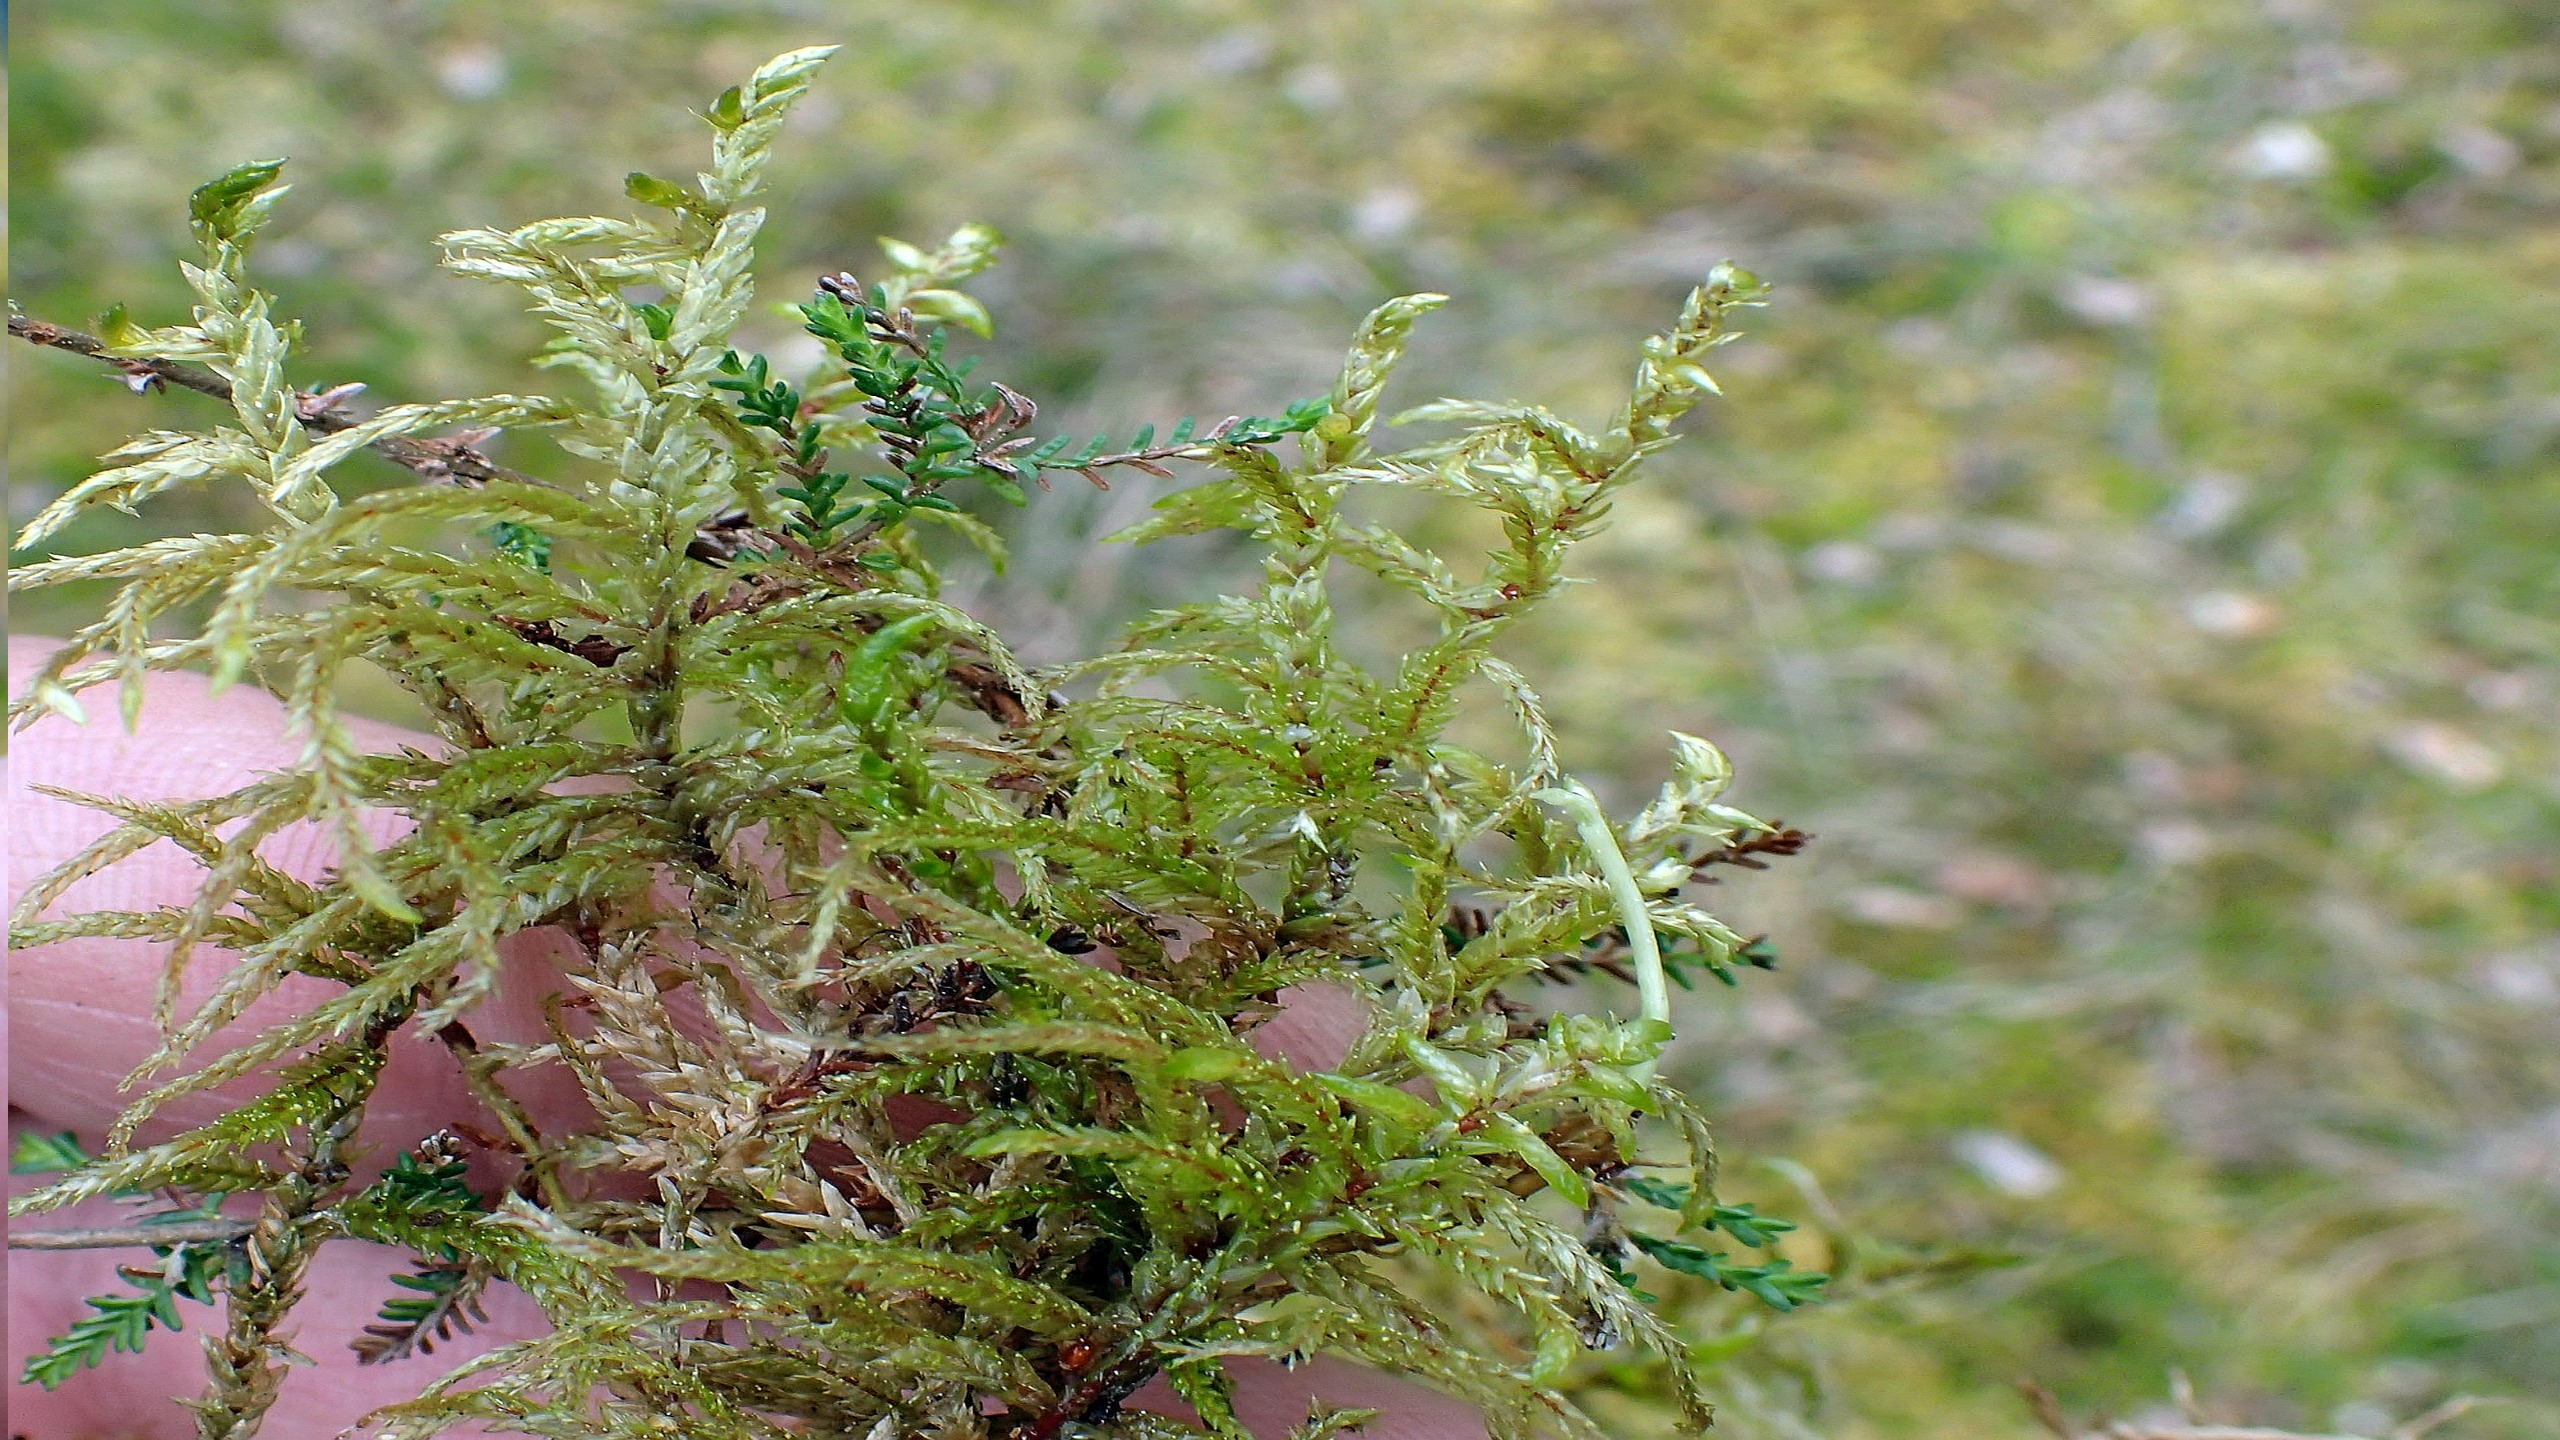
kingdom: Plantae
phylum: Bryophyta
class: Bryopsida
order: Hypnales
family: Hylocomiaceae
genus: Pleurozium
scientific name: Pleurozium schreberi
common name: Trind fyrremos
